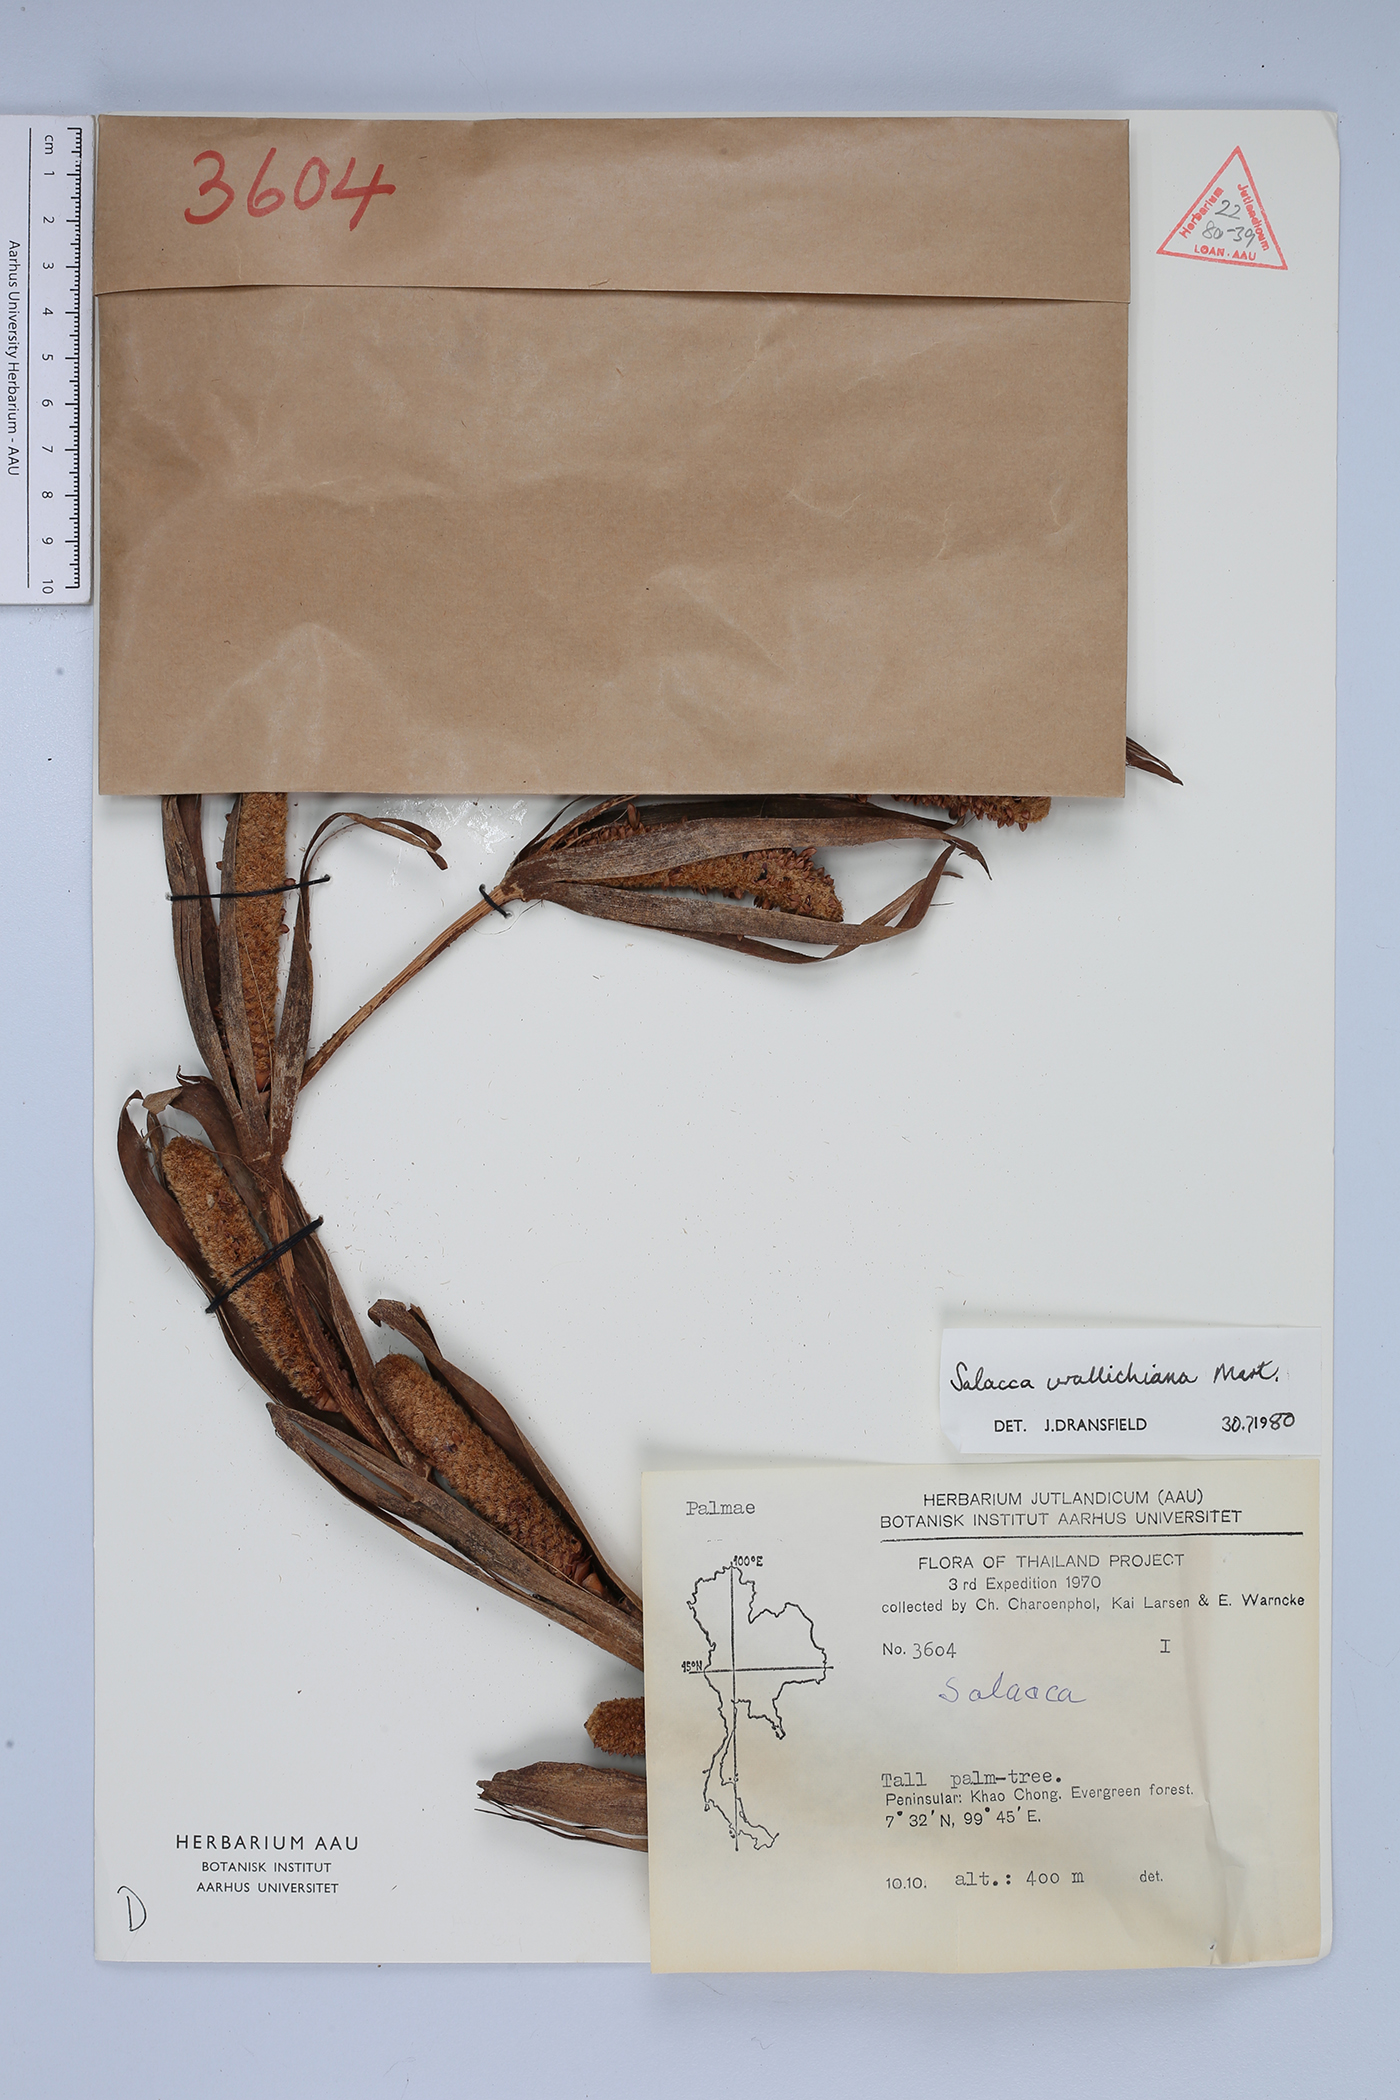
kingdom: Plantae
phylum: Tracheophyta
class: Liliopsida
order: Arecales
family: Arecaceae
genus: Salacca
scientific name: Salacca wallichiana
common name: Rakum palm
